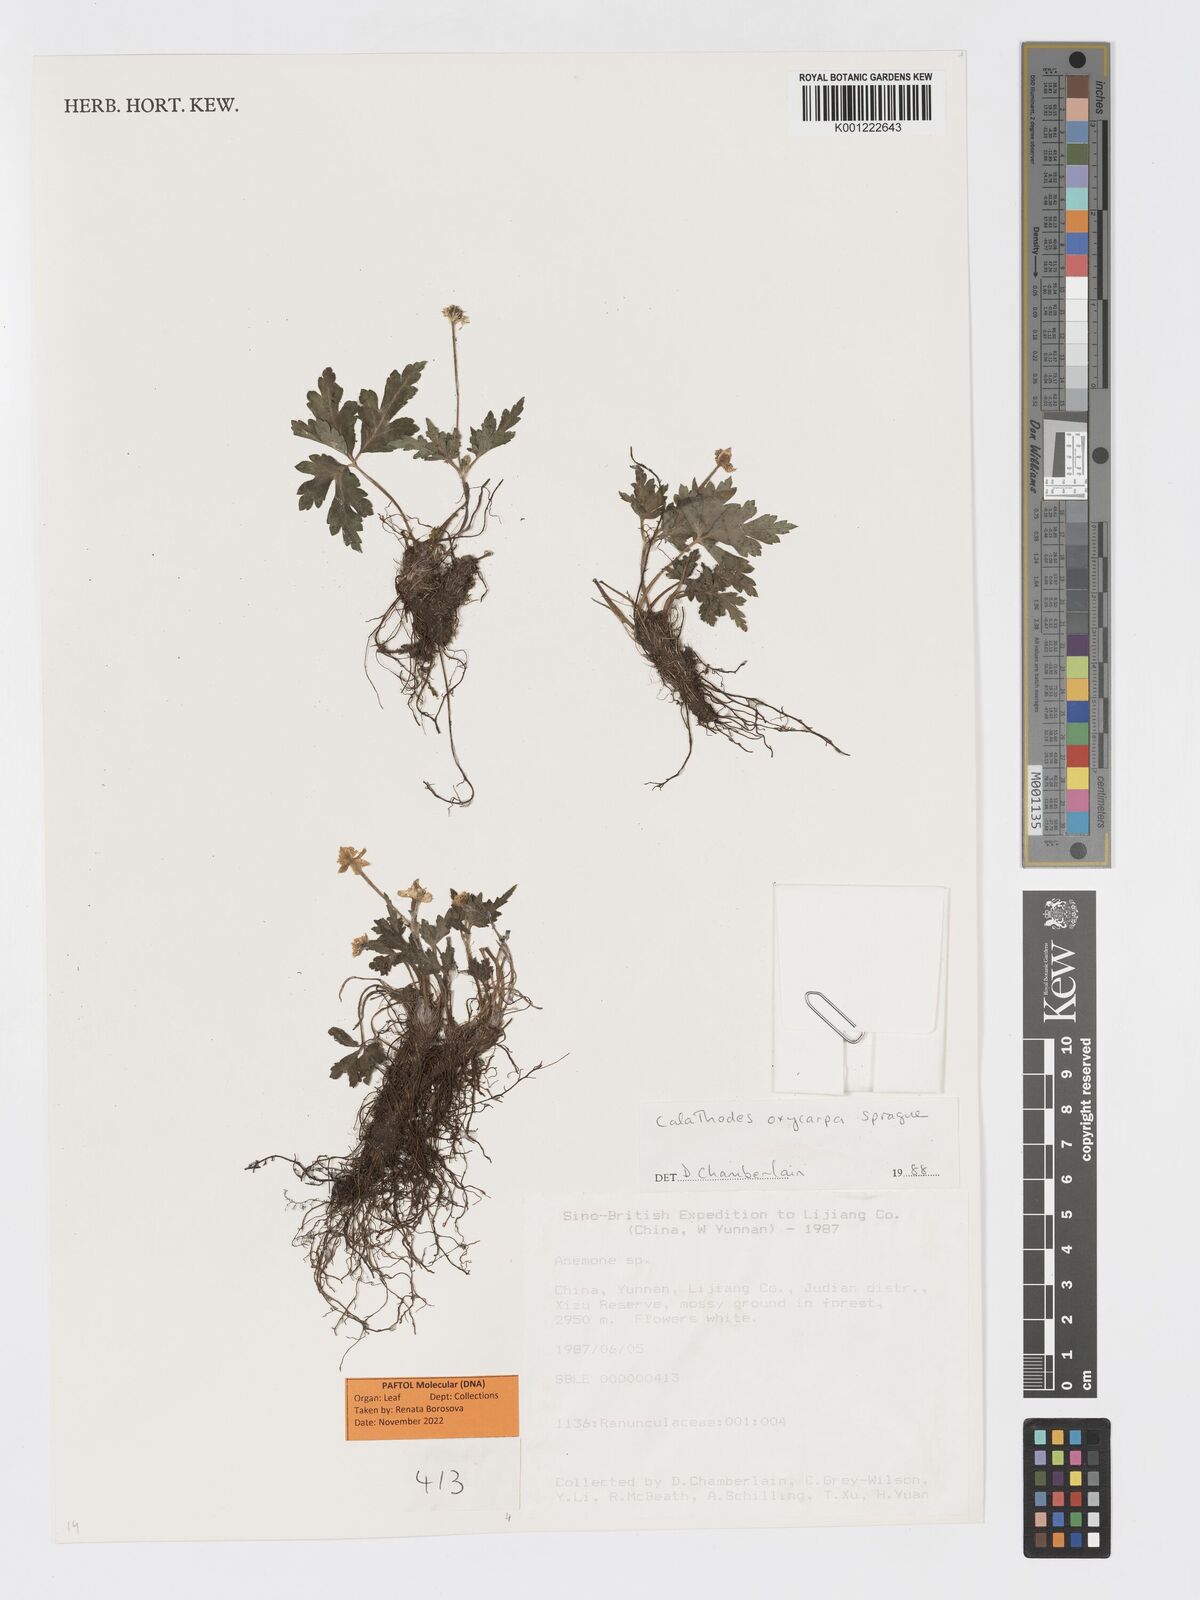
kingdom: Plantae
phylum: Tracheophyta
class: Magnoliopsida
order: Ranunculales
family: Ranunculaceae
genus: Calathodes
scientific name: Calathodes oxycarpa
